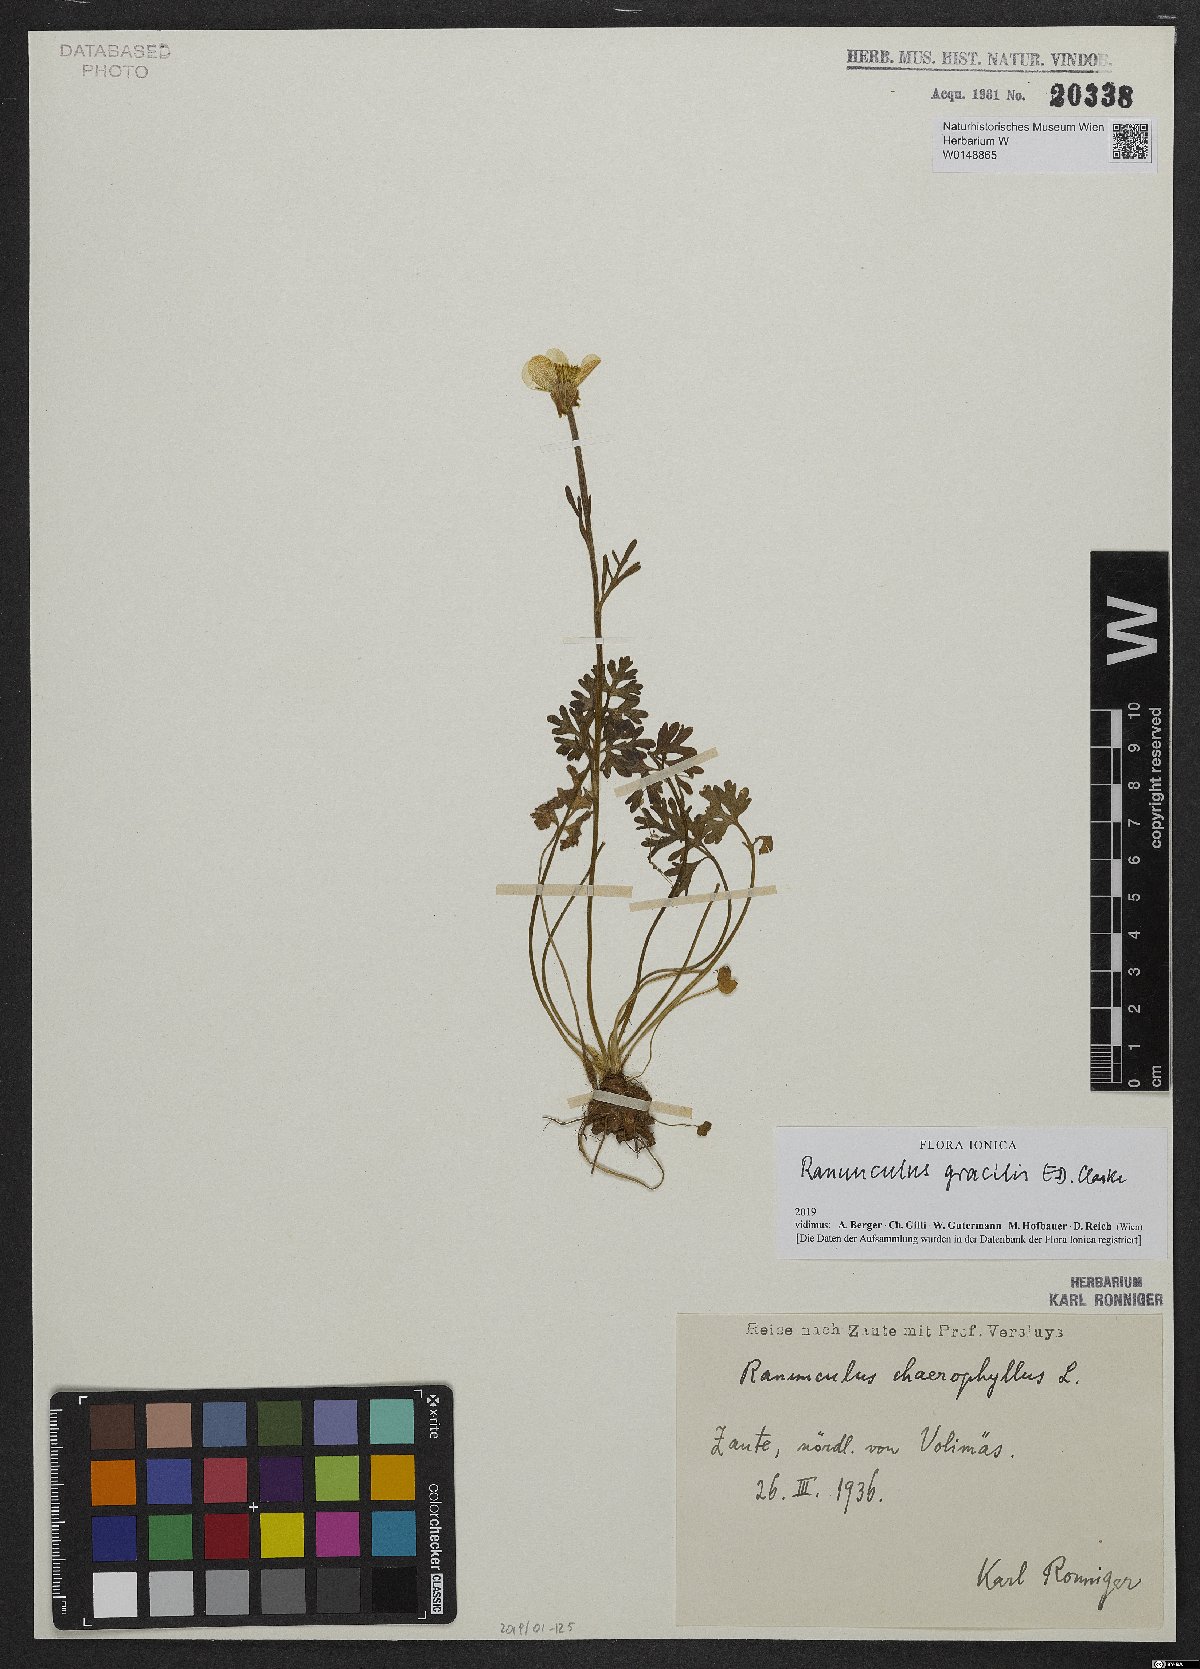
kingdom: Plantae
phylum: Tracheophyta
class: Magnoliopsida
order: Ranunculales
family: Ranunculaceae
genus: Ranunculus
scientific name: Ranunculus gracilis
